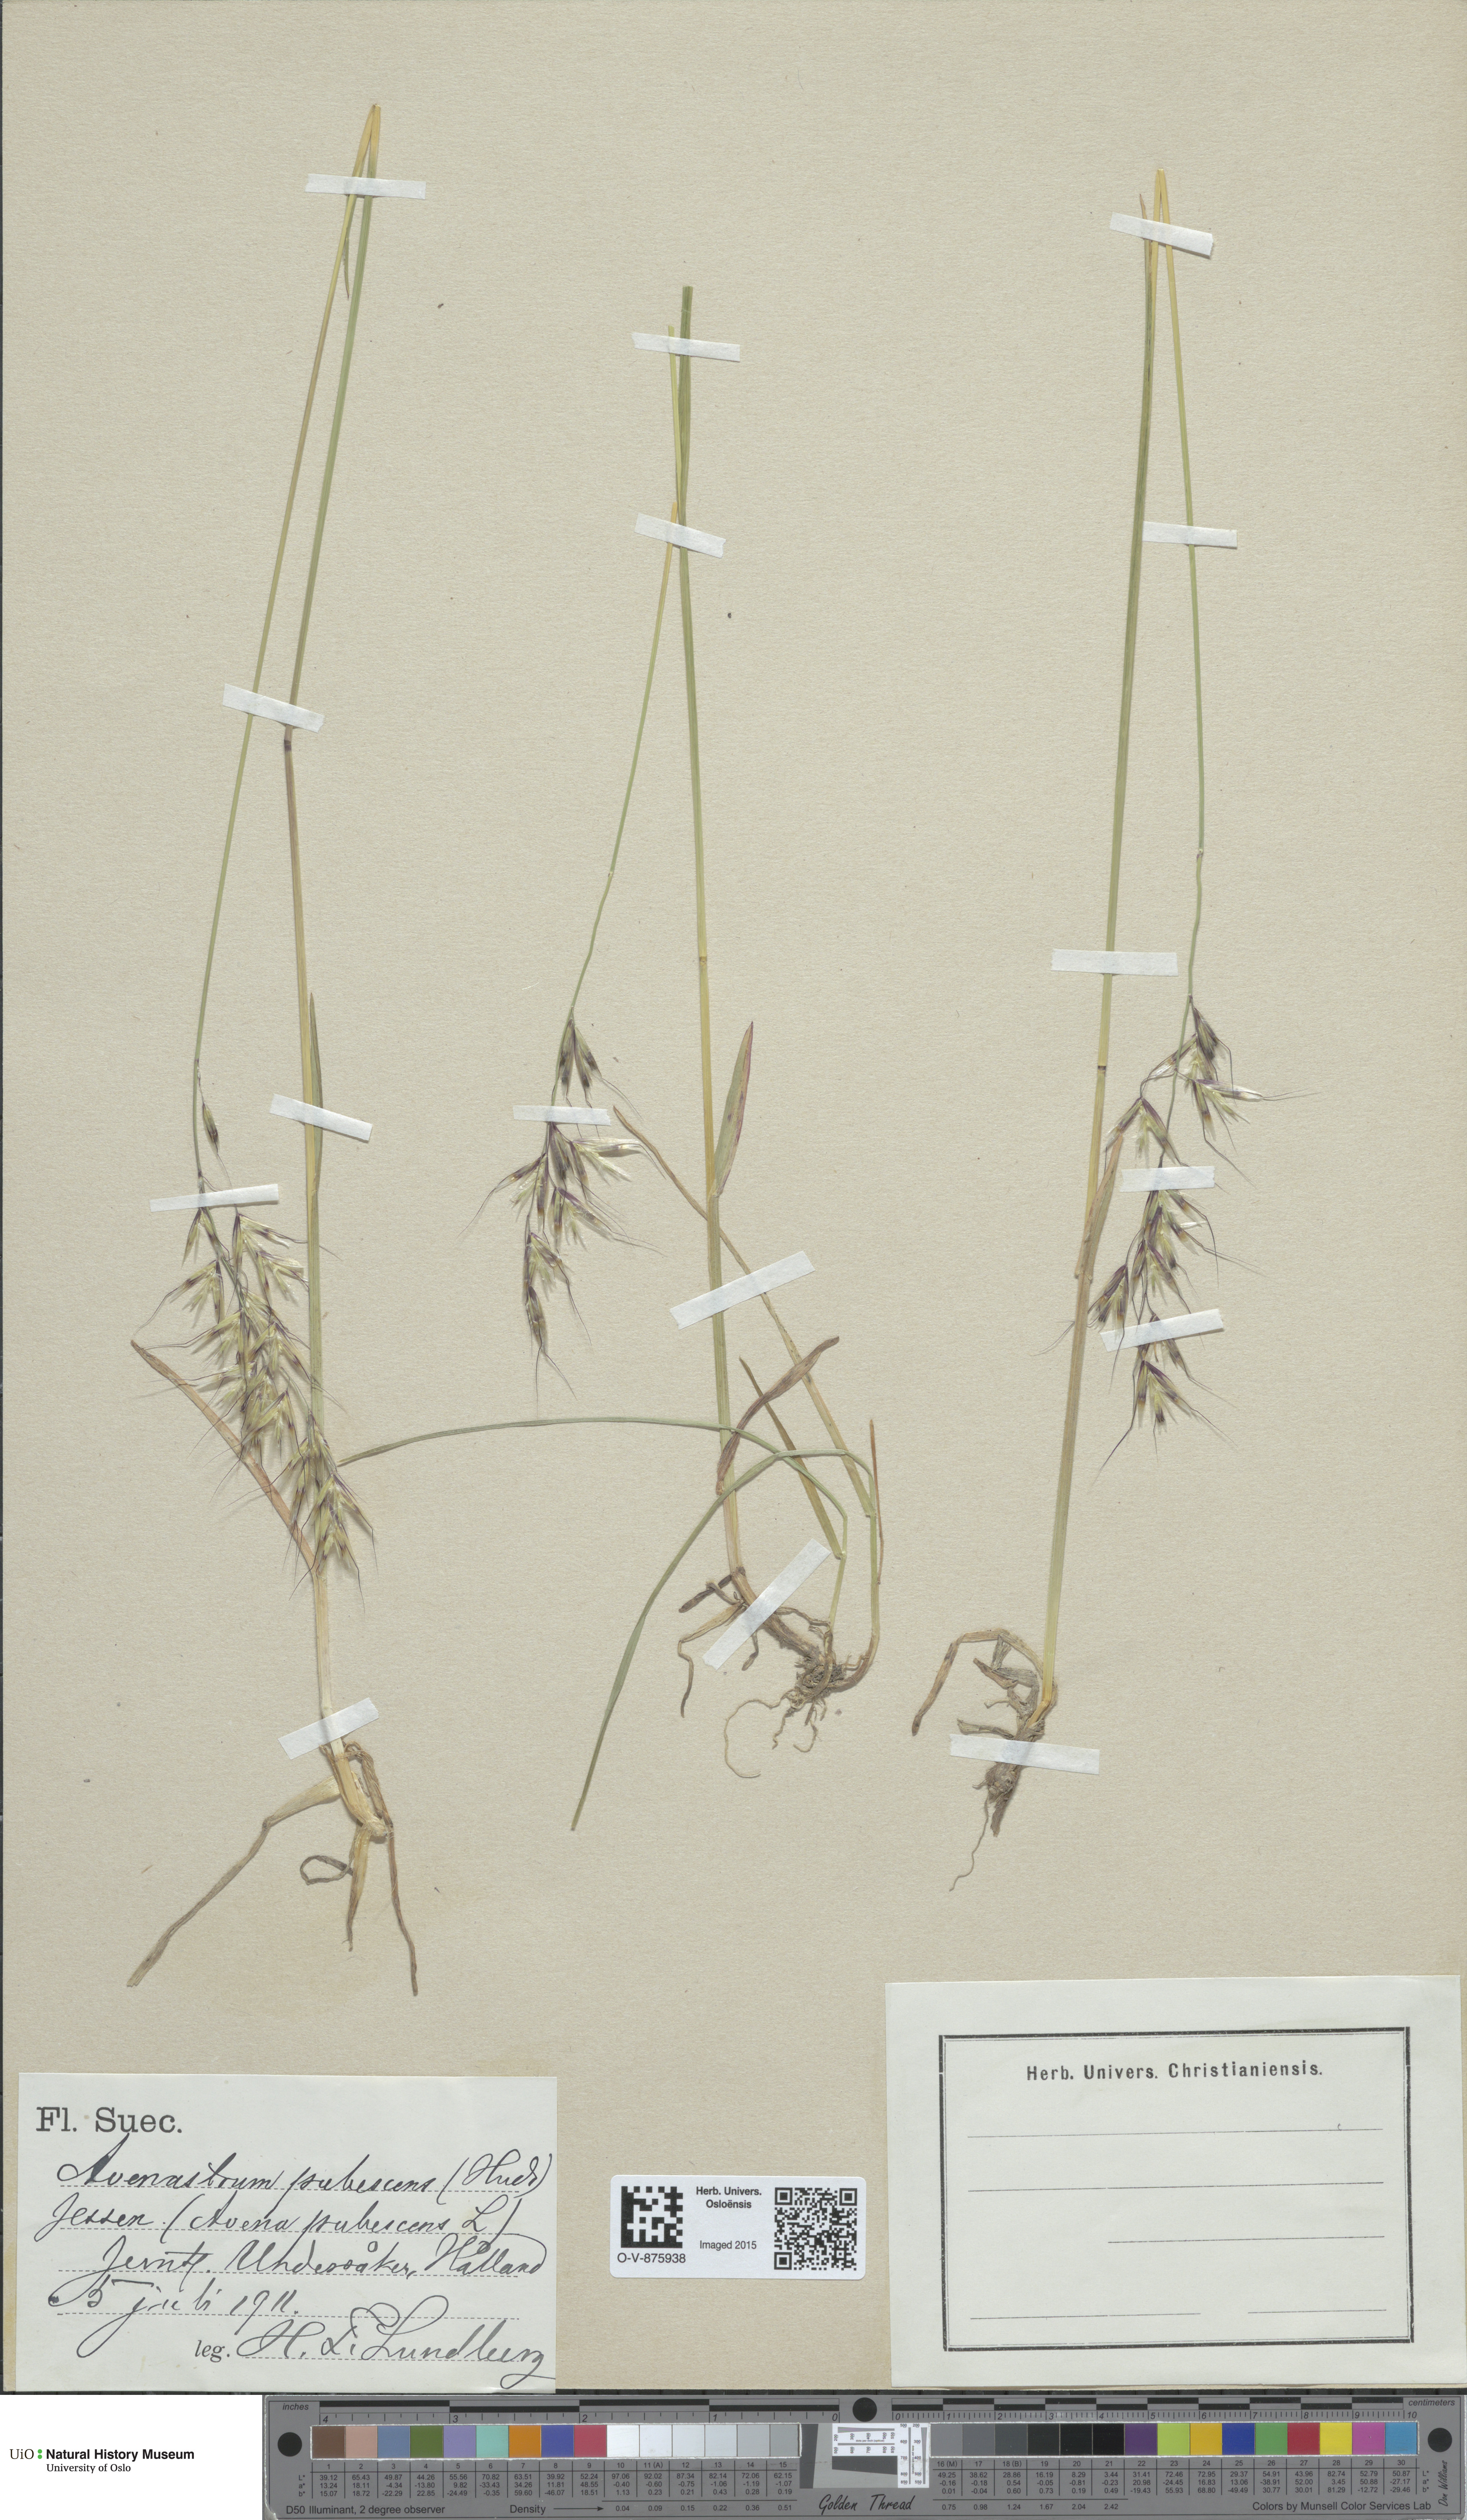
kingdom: Plantae
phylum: Tracheophyta
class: Liliopsida
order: Poales
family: Poaceae
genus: Avenula
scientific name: Avenula pubescens
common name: Downy alpine oatgrass
